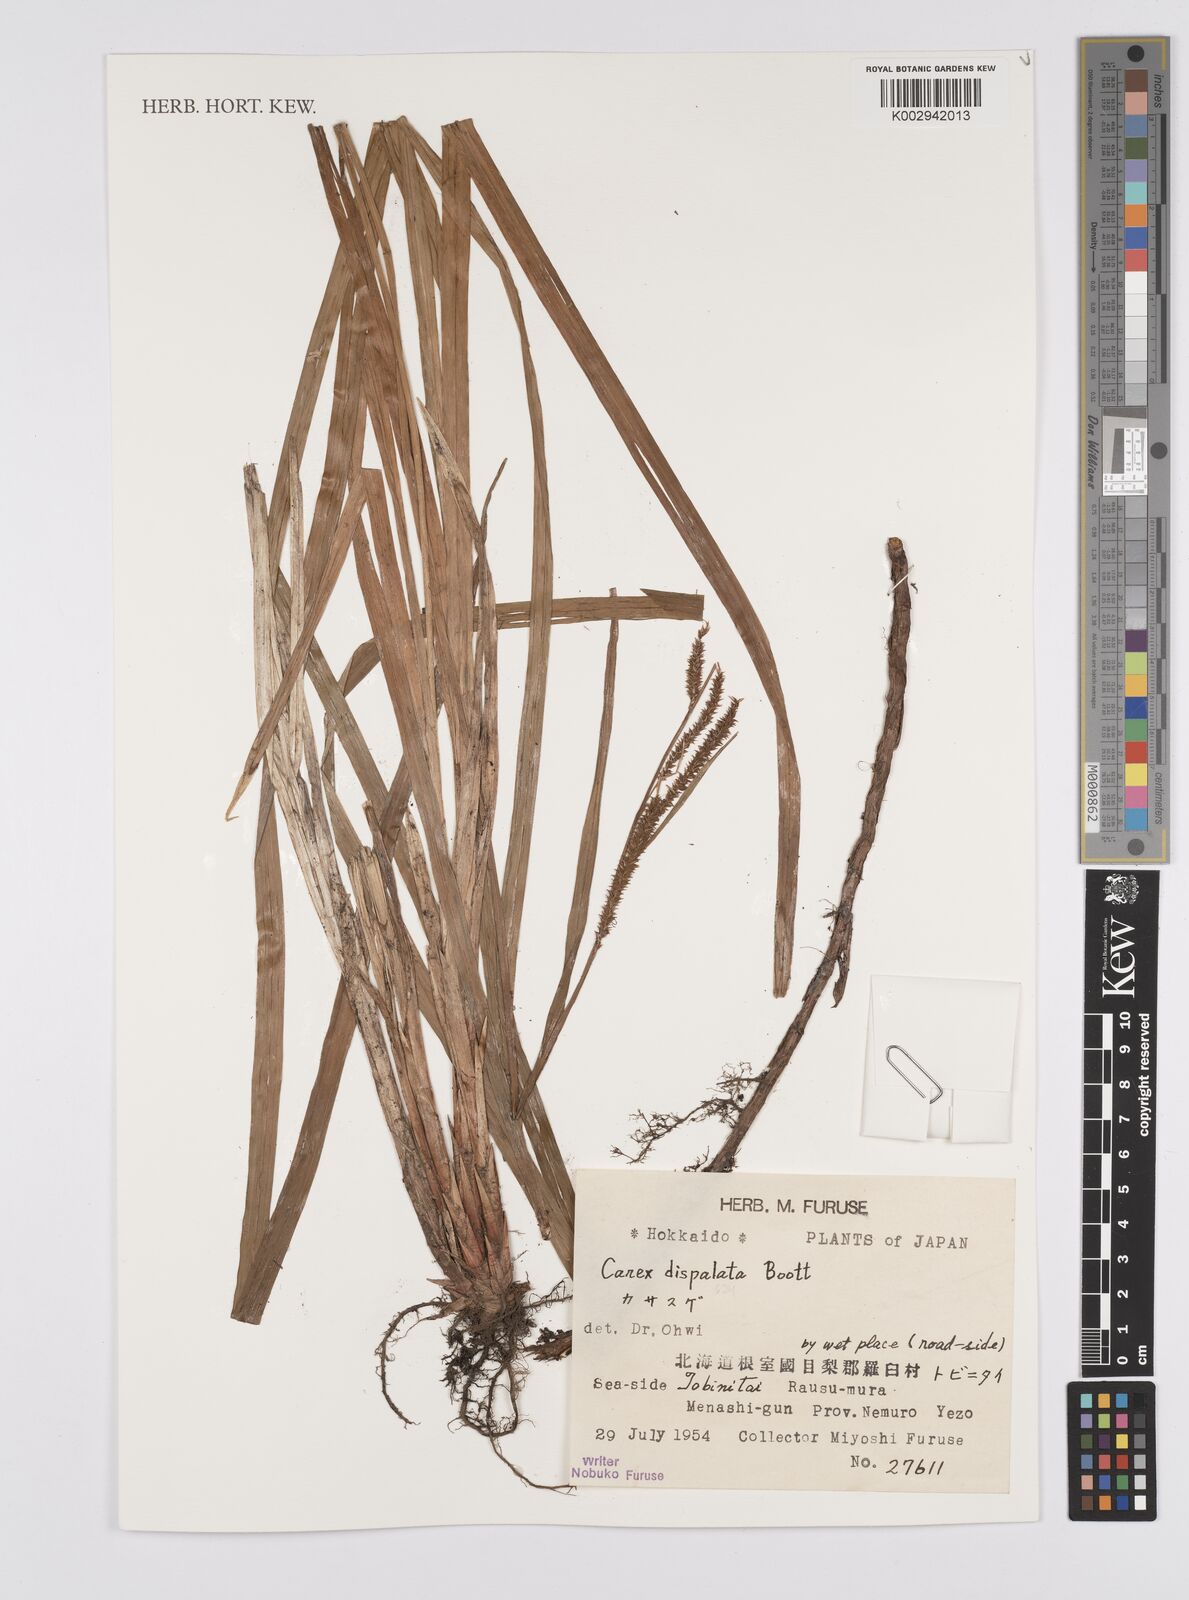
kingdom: Plantae
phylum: Tracheophyta
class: Liliopsida
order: Poales
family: Cyperaceae
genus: Carex
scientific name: Carex dispalata
